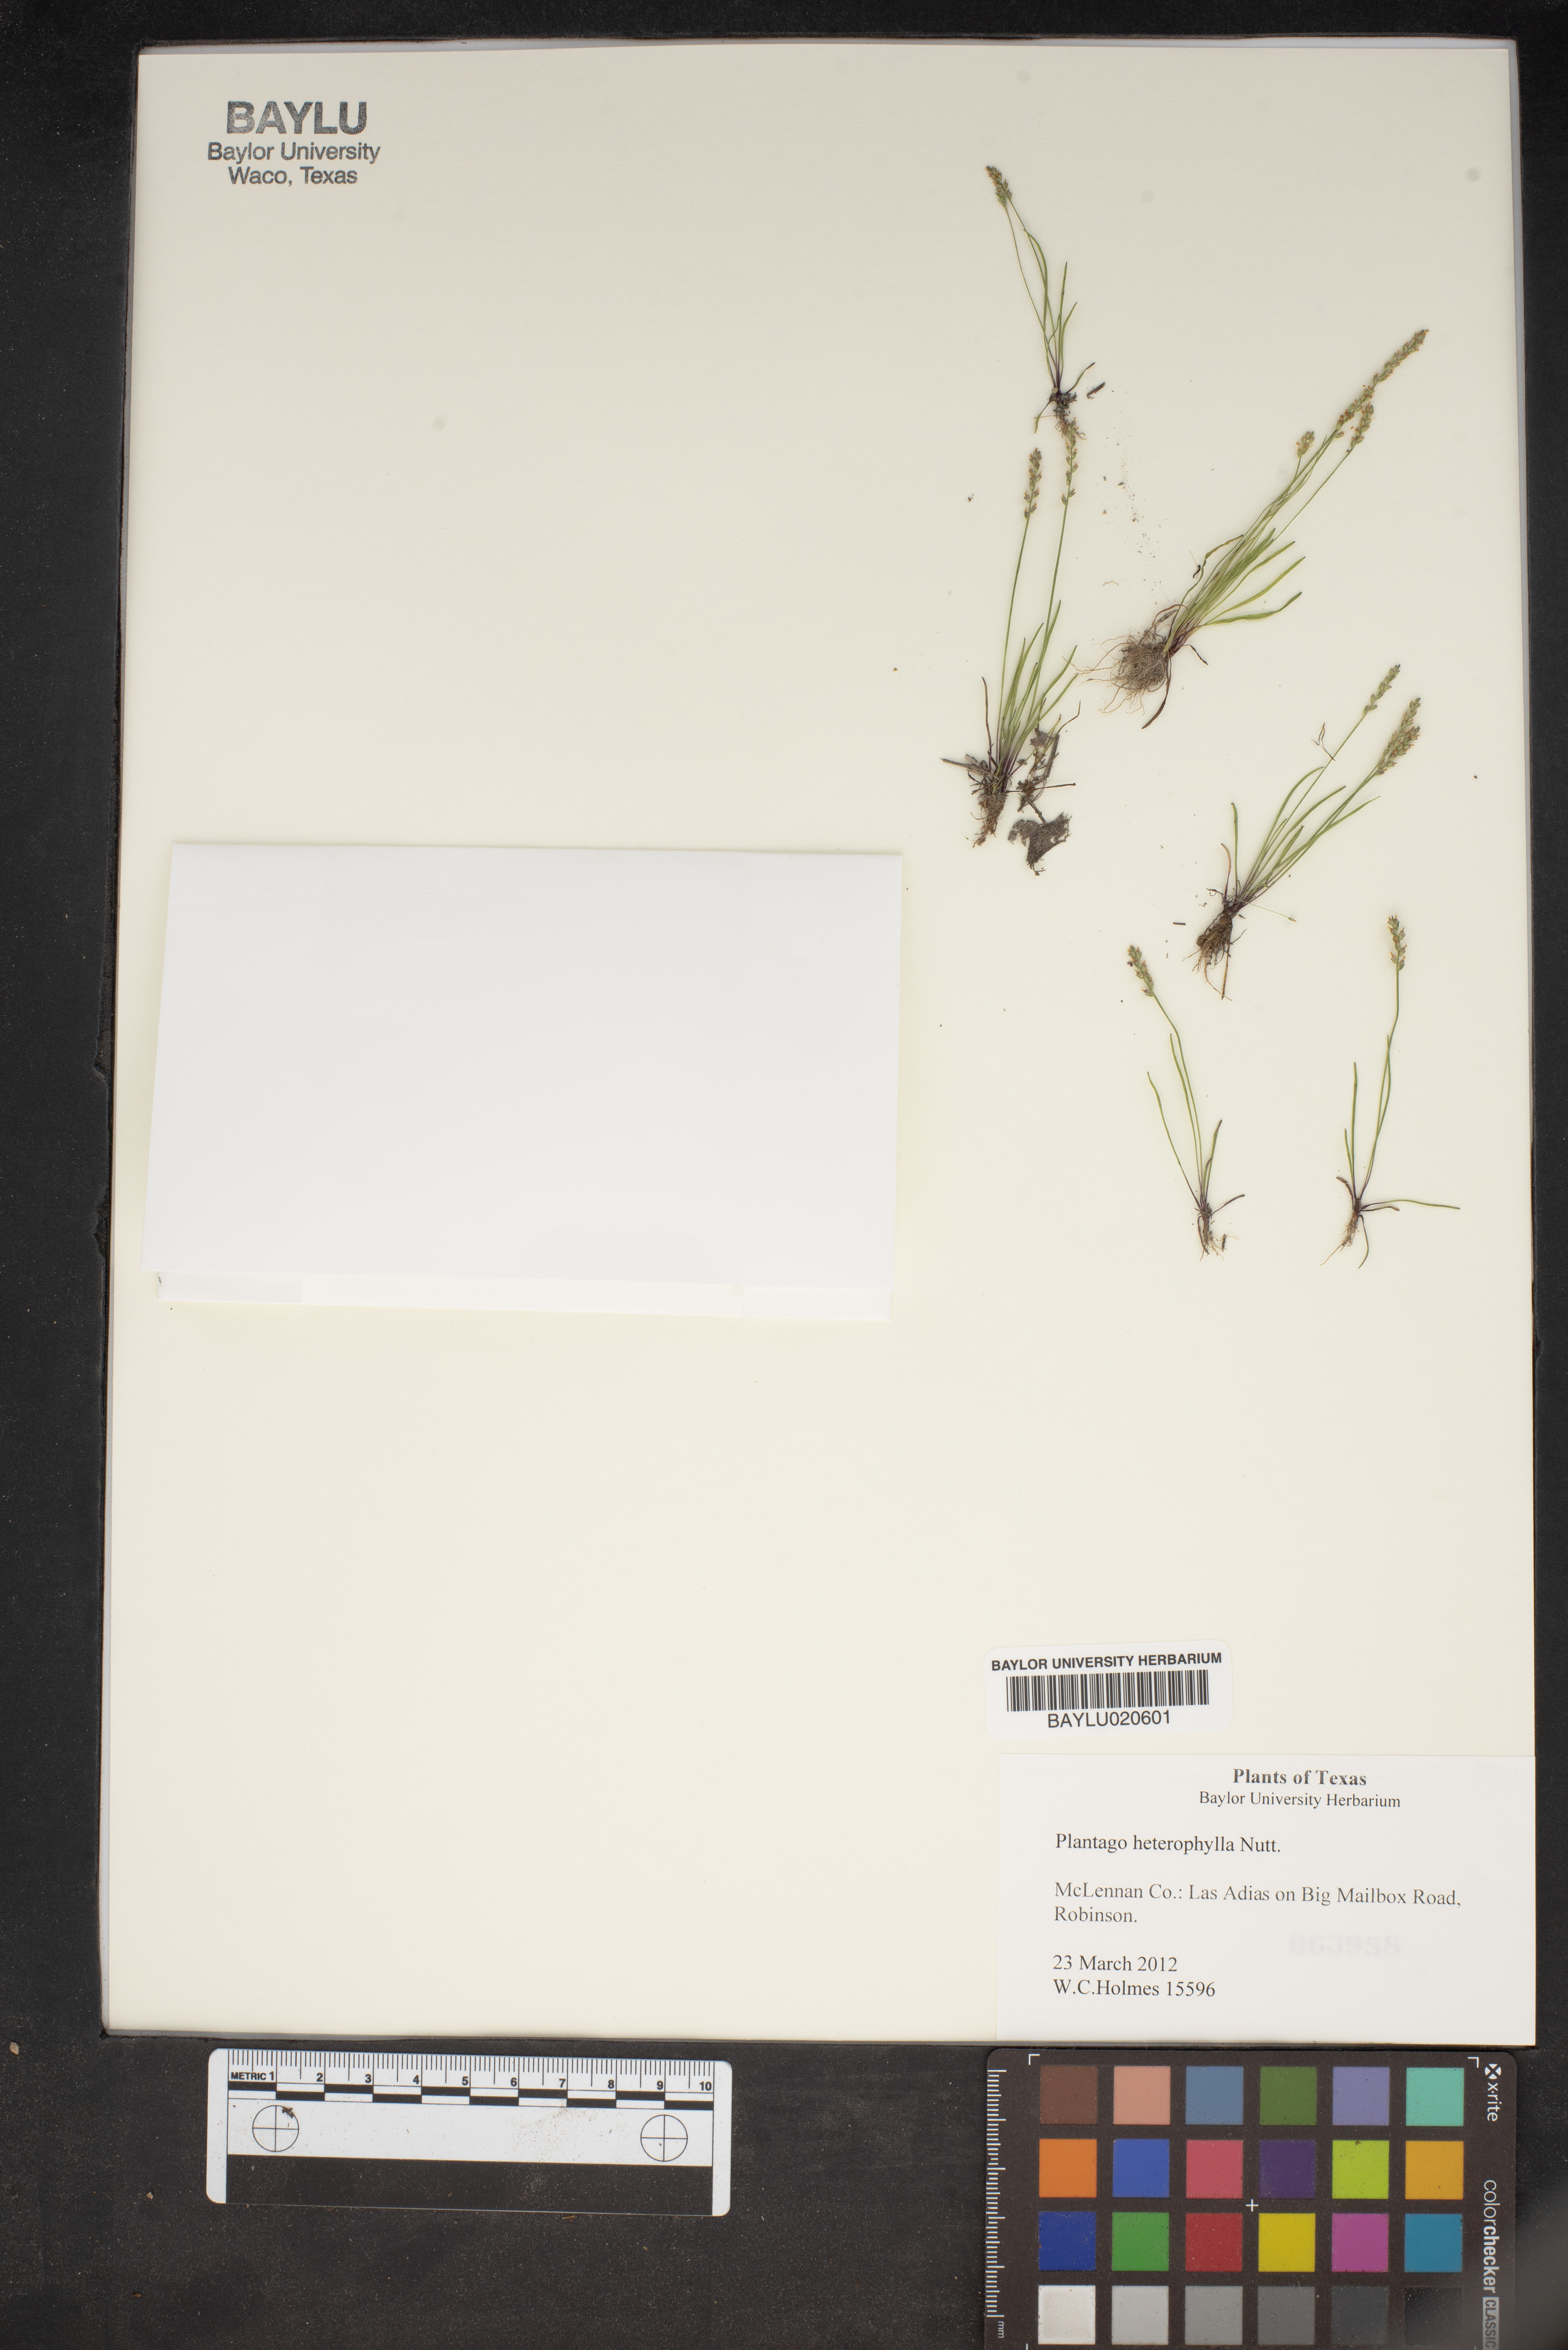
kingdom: Plantae
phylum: Tracheophyta
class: Magnoliopsida
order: Lamiales
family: Plantaginaceae
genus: Plantago
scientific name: Plantago heterophylla
